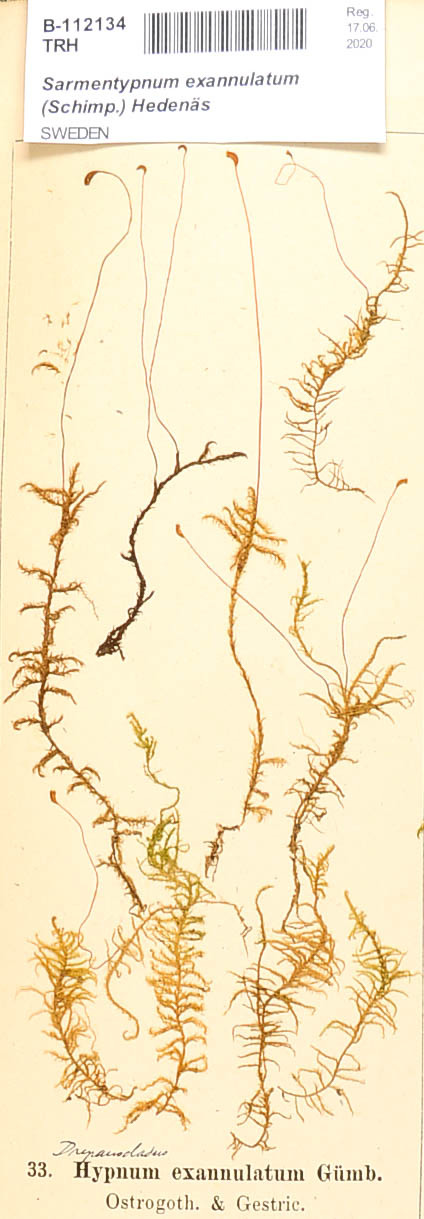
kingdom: Plantae
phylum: Bryophyta
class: Bryopsida
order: Hypnales
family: Calliergonaceae
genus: Sarmentypnum
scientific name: Sarmentypnum exannulatum
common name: Ringless spoon moss
